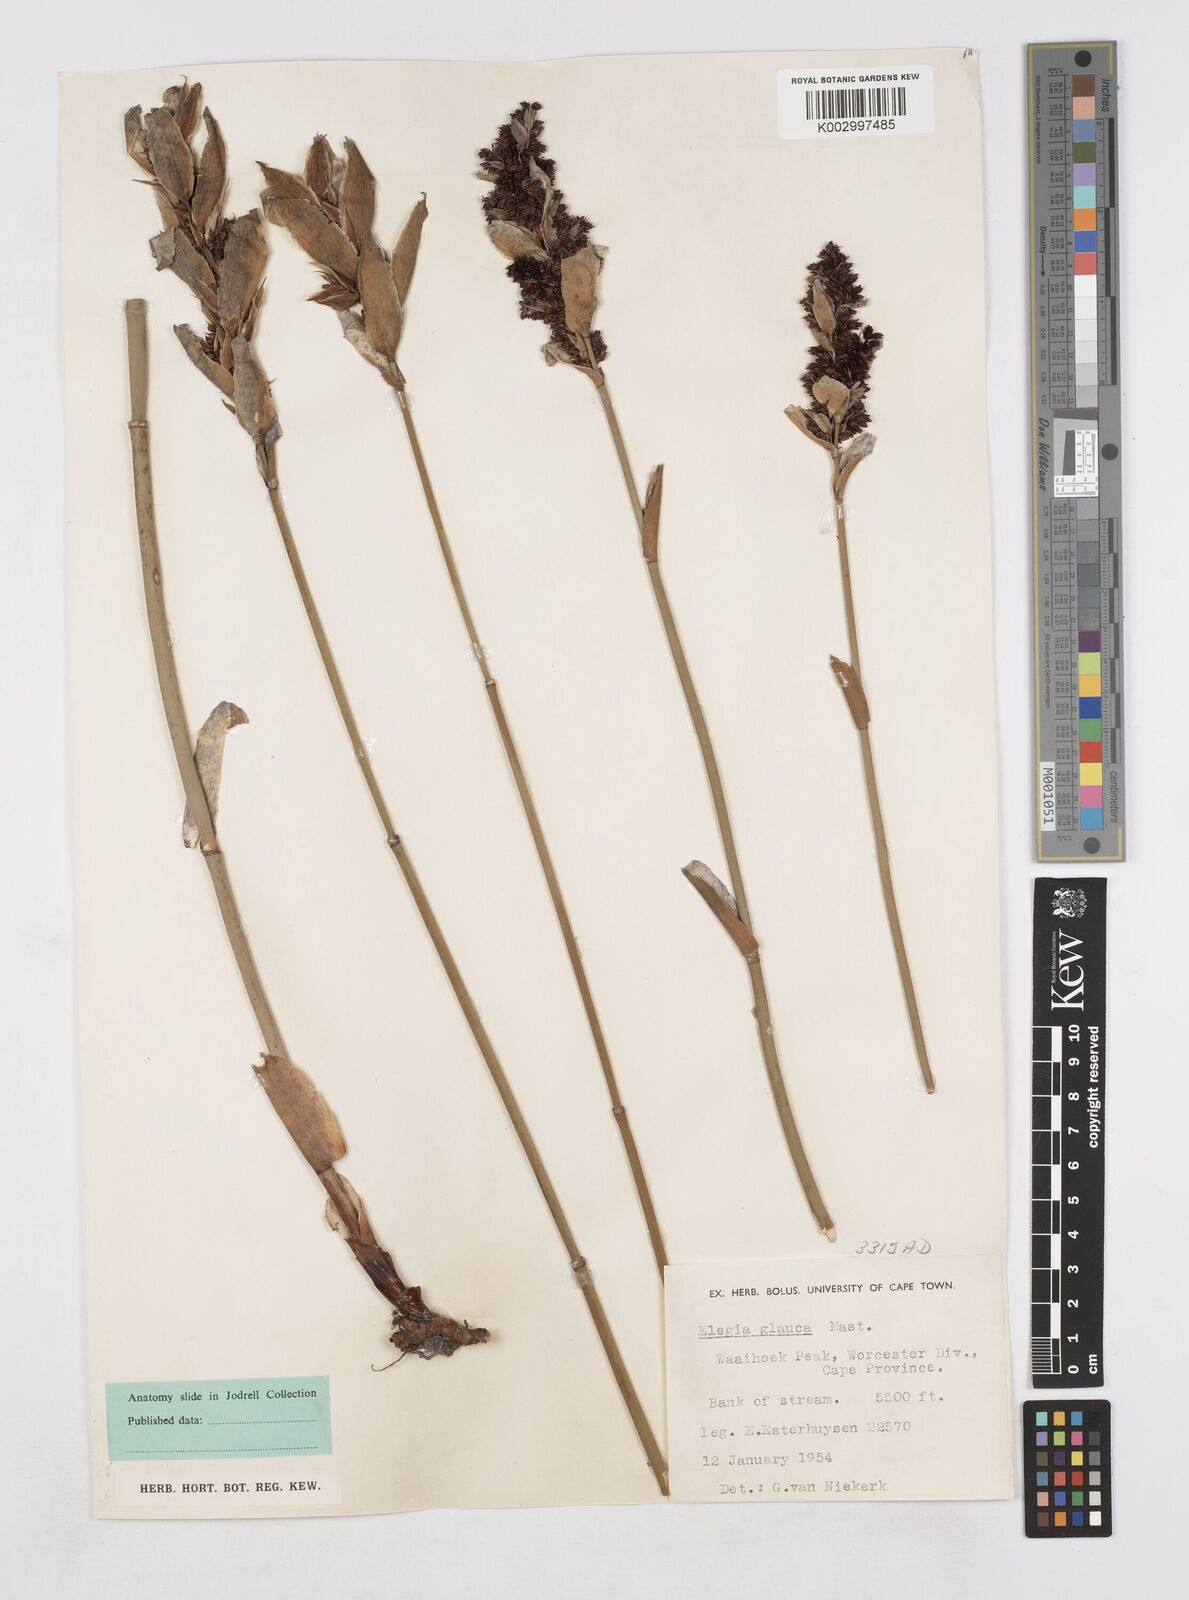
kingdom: Plantae
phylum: Tracheophyta
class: Liliopsida
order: Poales
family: Restionaceae
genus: Elegia
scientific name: Elegia asperiflora
